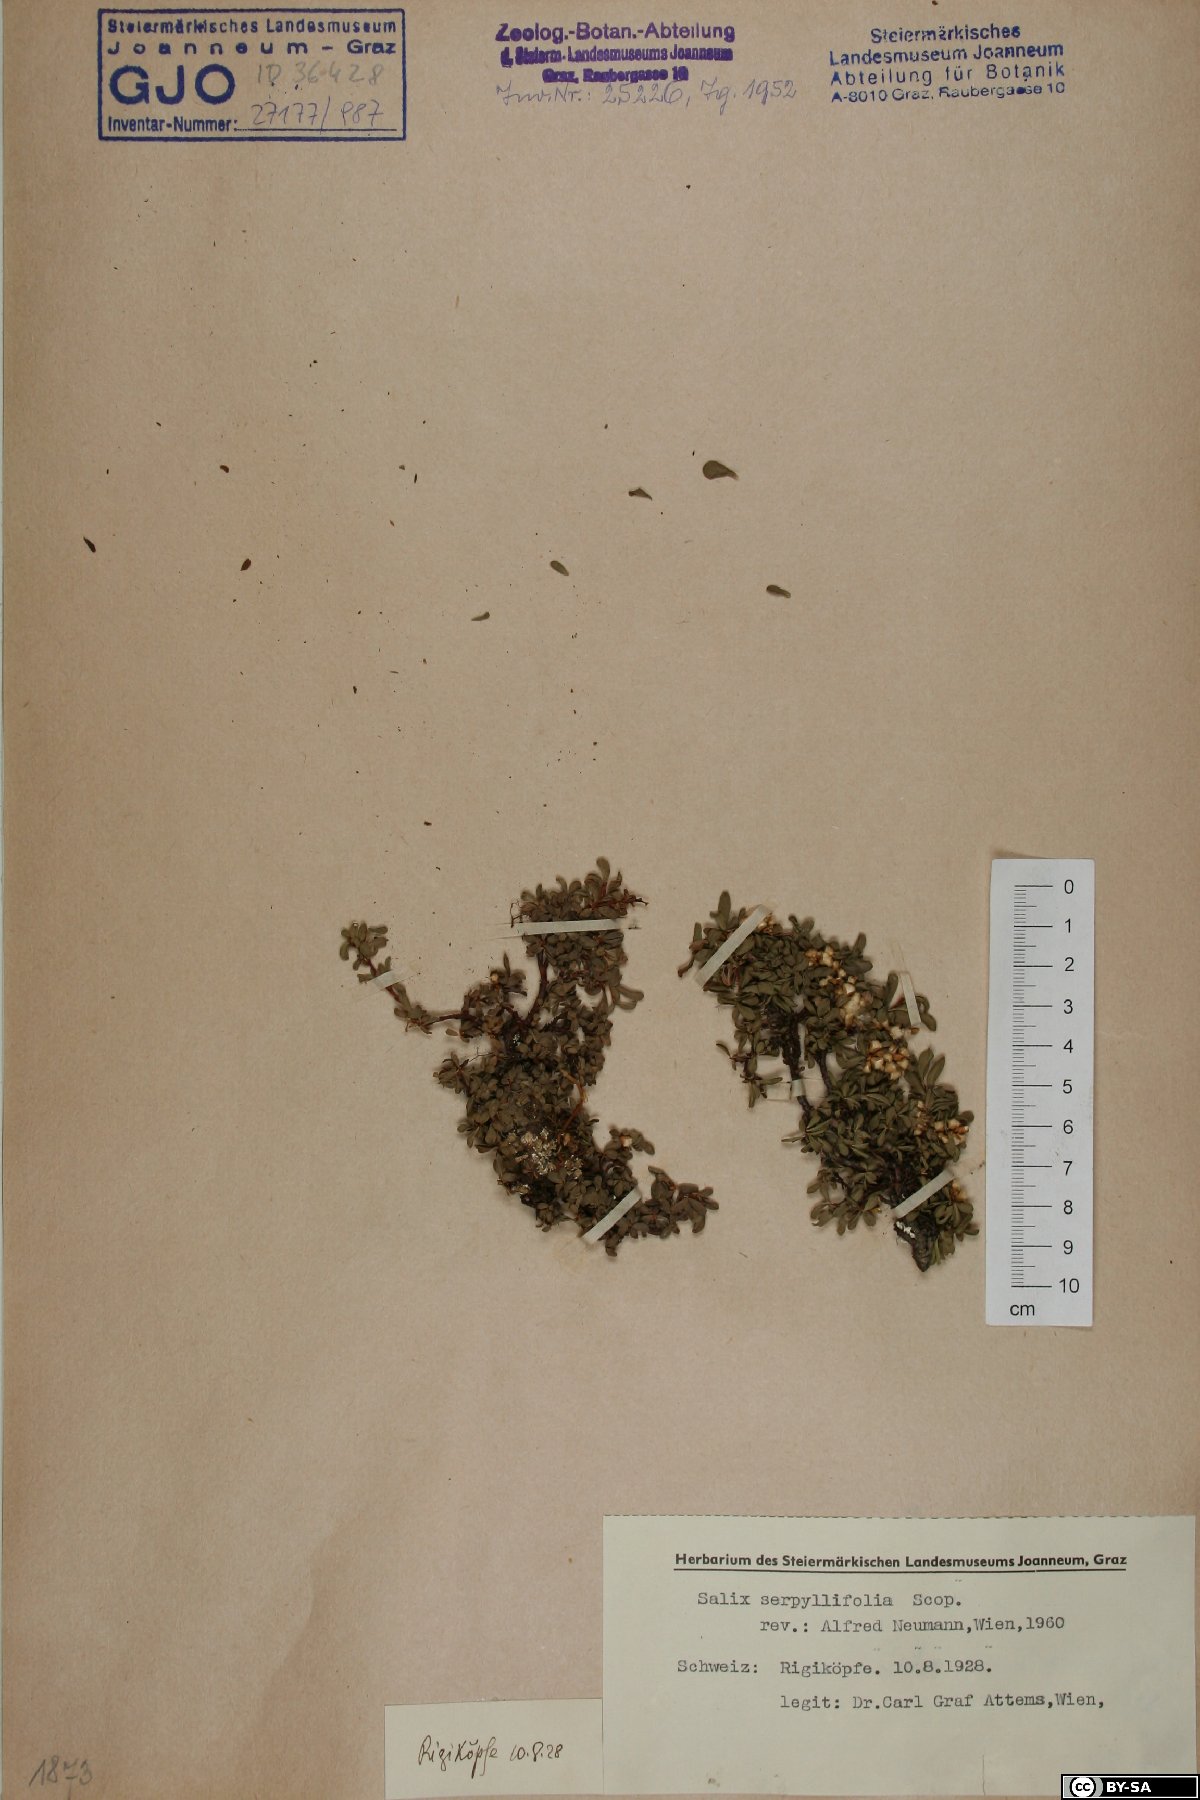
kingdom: Plantae
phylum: Tracheophyta
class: Magnoliopsida
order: Malpighiales
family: Salicaceae
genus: Salix
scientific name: Salix serpillifolia
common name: Thyme-leaf willow
